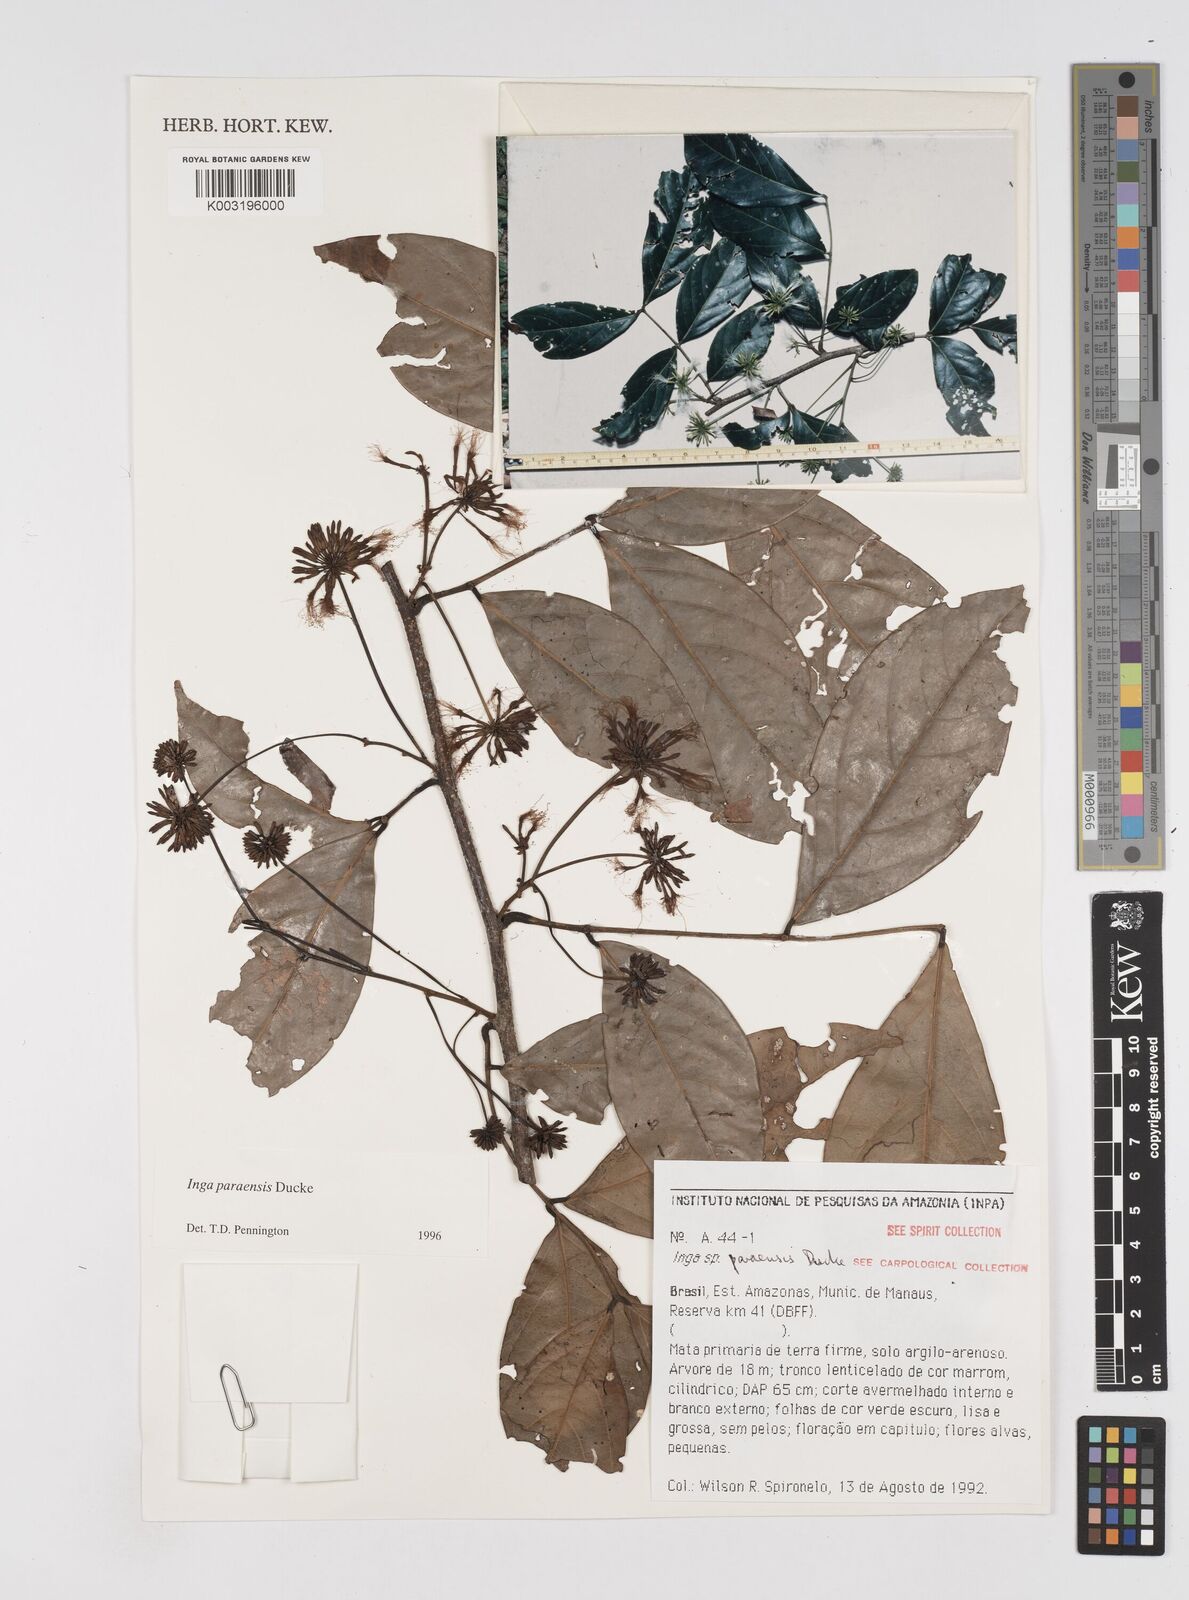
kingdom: Plantae
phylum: Tracheophyta
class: Magnoliopsida
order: Fabales
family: Fabaceae
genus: Inga
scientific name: Inga paraensis
